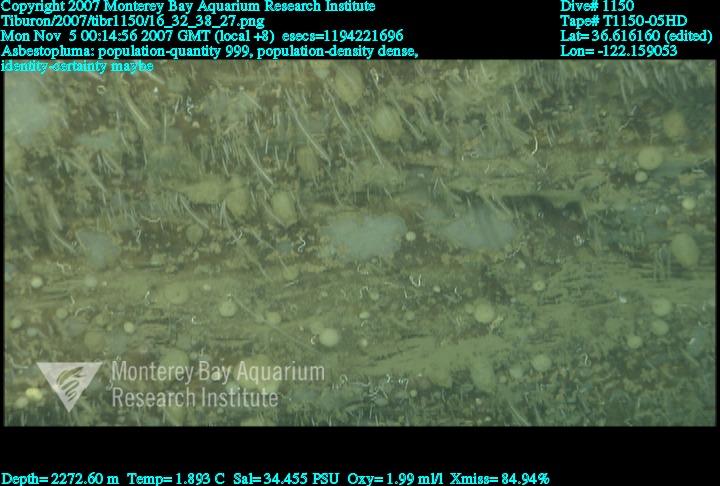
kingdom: Animalia
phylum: Porifera
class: Demospongiae
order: Poecilosclerida
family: Cladorhizidae
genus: Asbestopluma
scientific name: Asbestopluma
